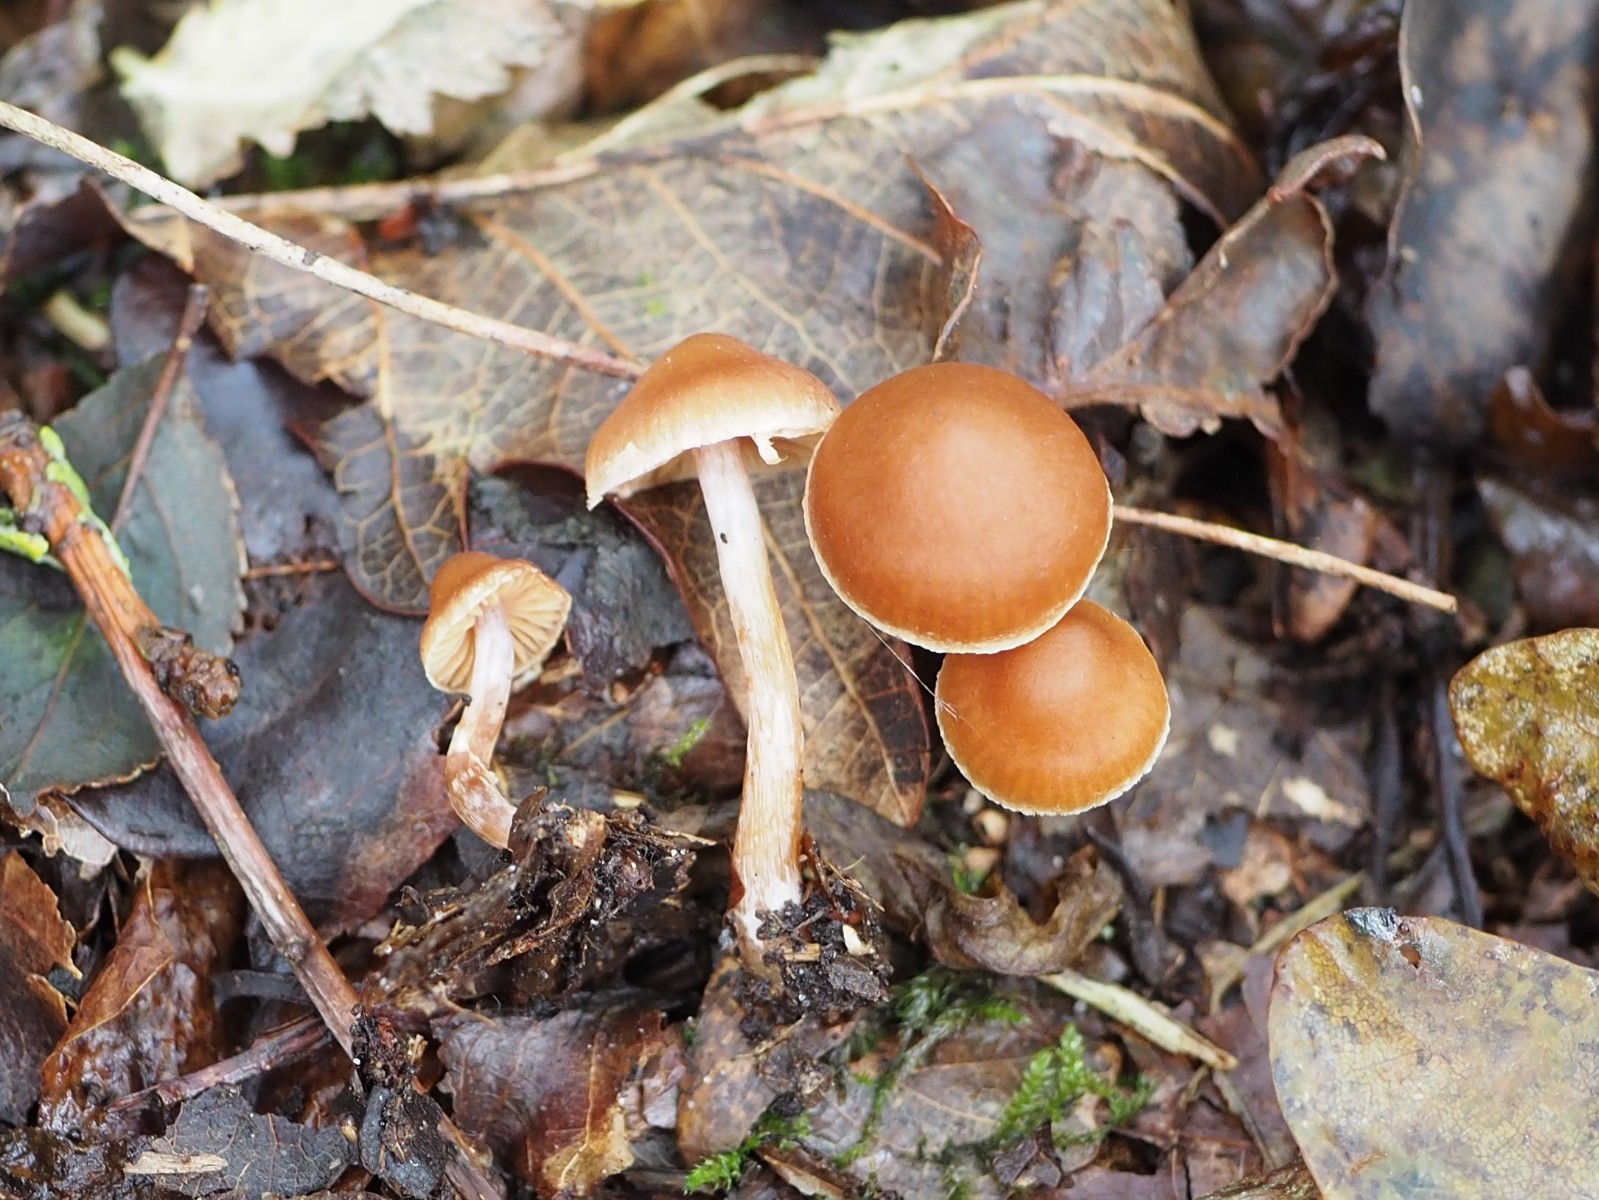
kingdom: Fungi
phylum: Basidiomycota
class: Agaricomycetes
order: Agaricales
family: Cortinariaceae
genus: Cortinarius
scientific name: Cortinarius
